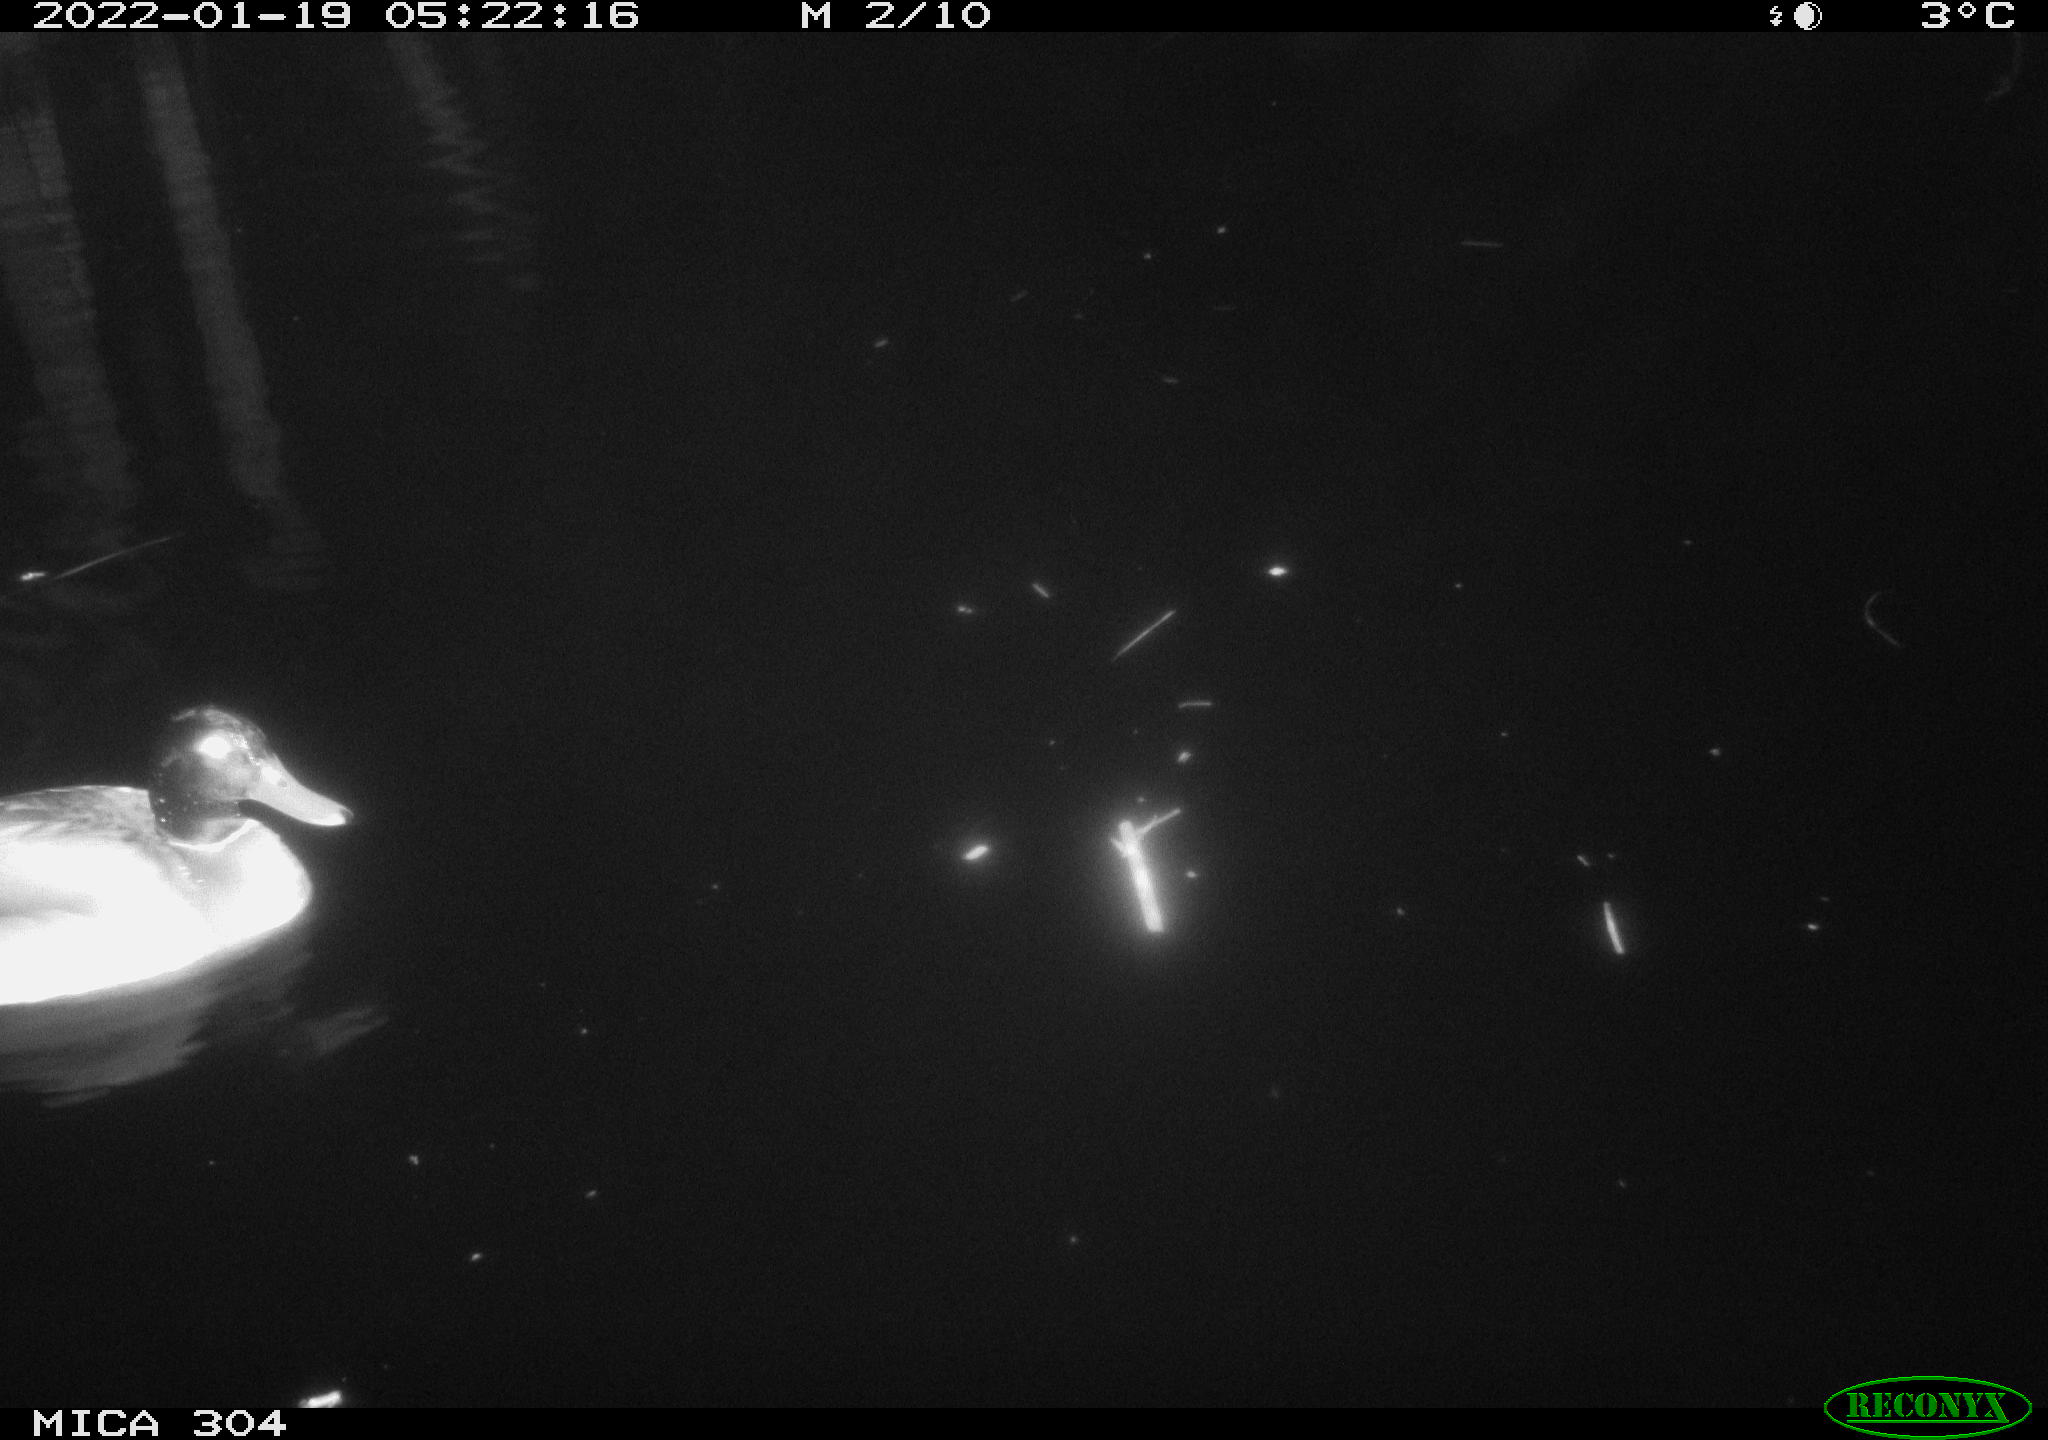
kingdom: Animalia
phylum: Chordata
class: Aves
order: Anseriformes
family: Anatidae
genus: Anas
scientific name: Anas
